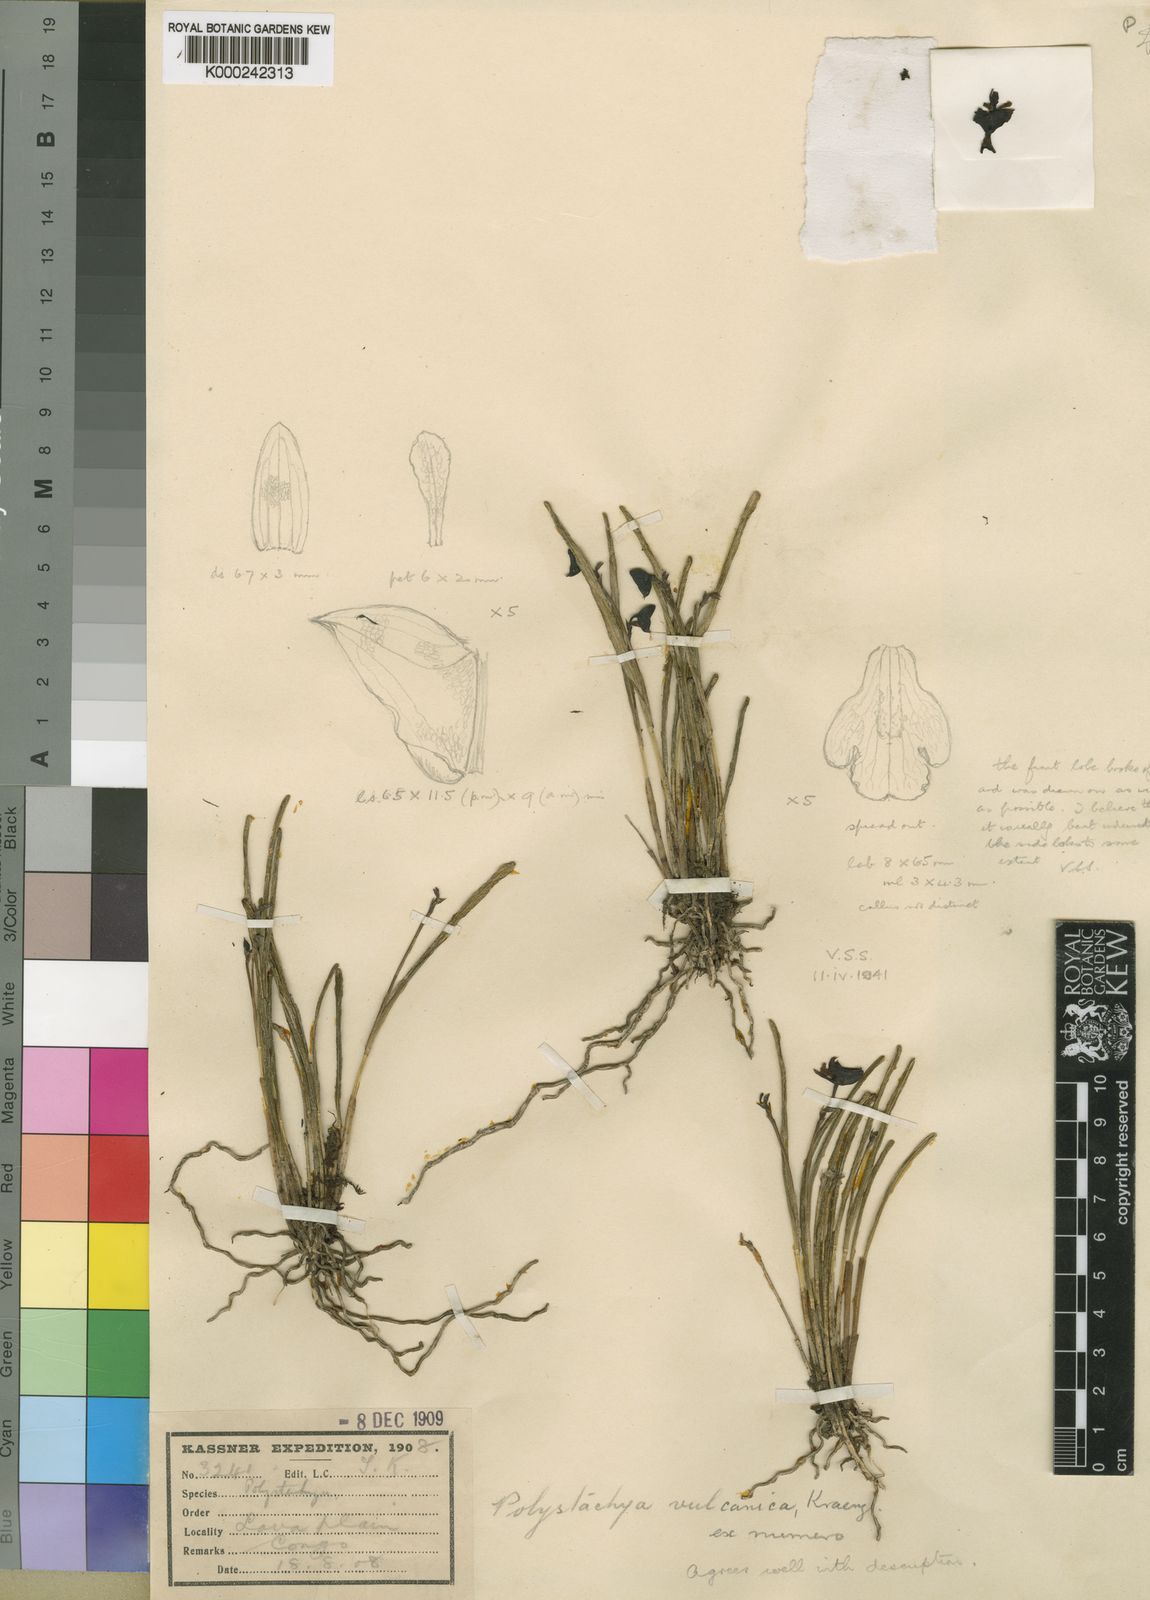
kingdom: Plantae
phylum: Tracheophyta
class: Liliopsida
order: Asparagales
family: Orchidaceae
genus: Polystachya
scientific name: Polystachya vulcanica
